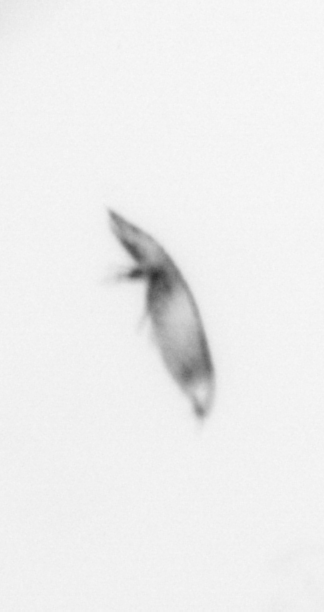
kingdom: Animalia
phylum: Arthropoda
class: Maxillopoda
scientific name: Maxillopoda
